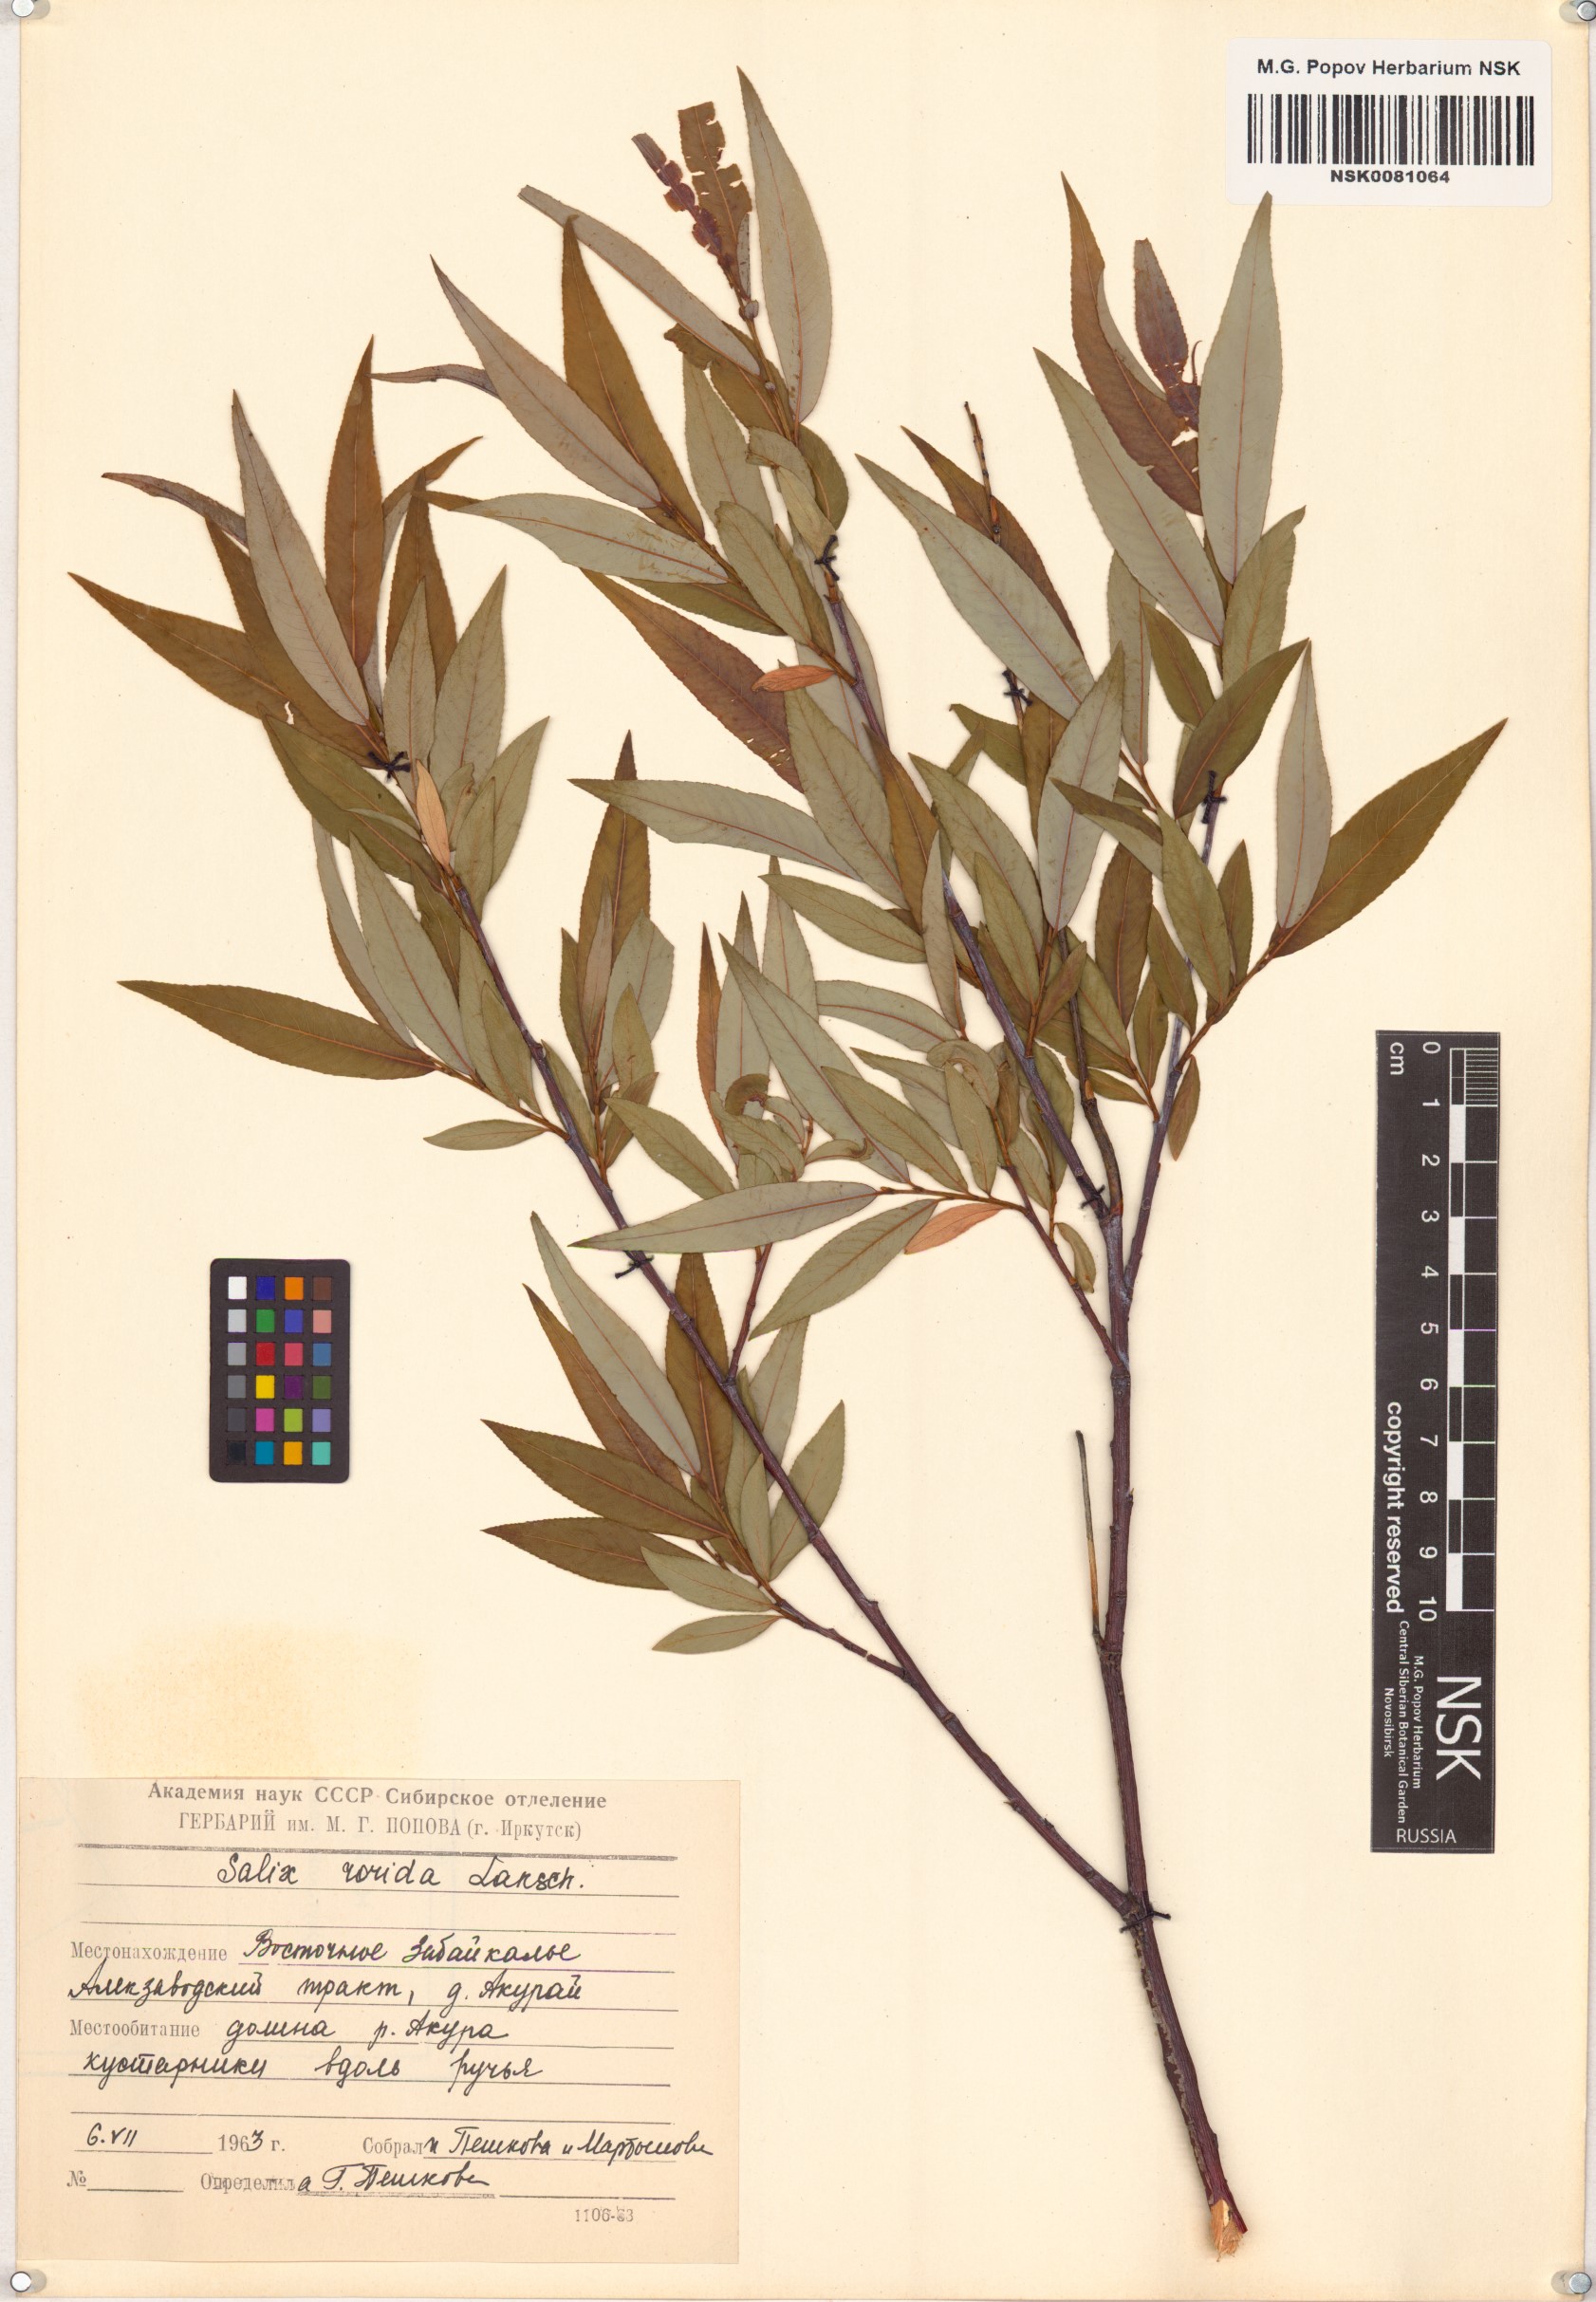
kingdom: Plantae
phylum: Tracheophyta
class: Magnoliopsida
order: Malpighiales
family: Salicaceae
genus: Salix
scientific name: Salix rorida
